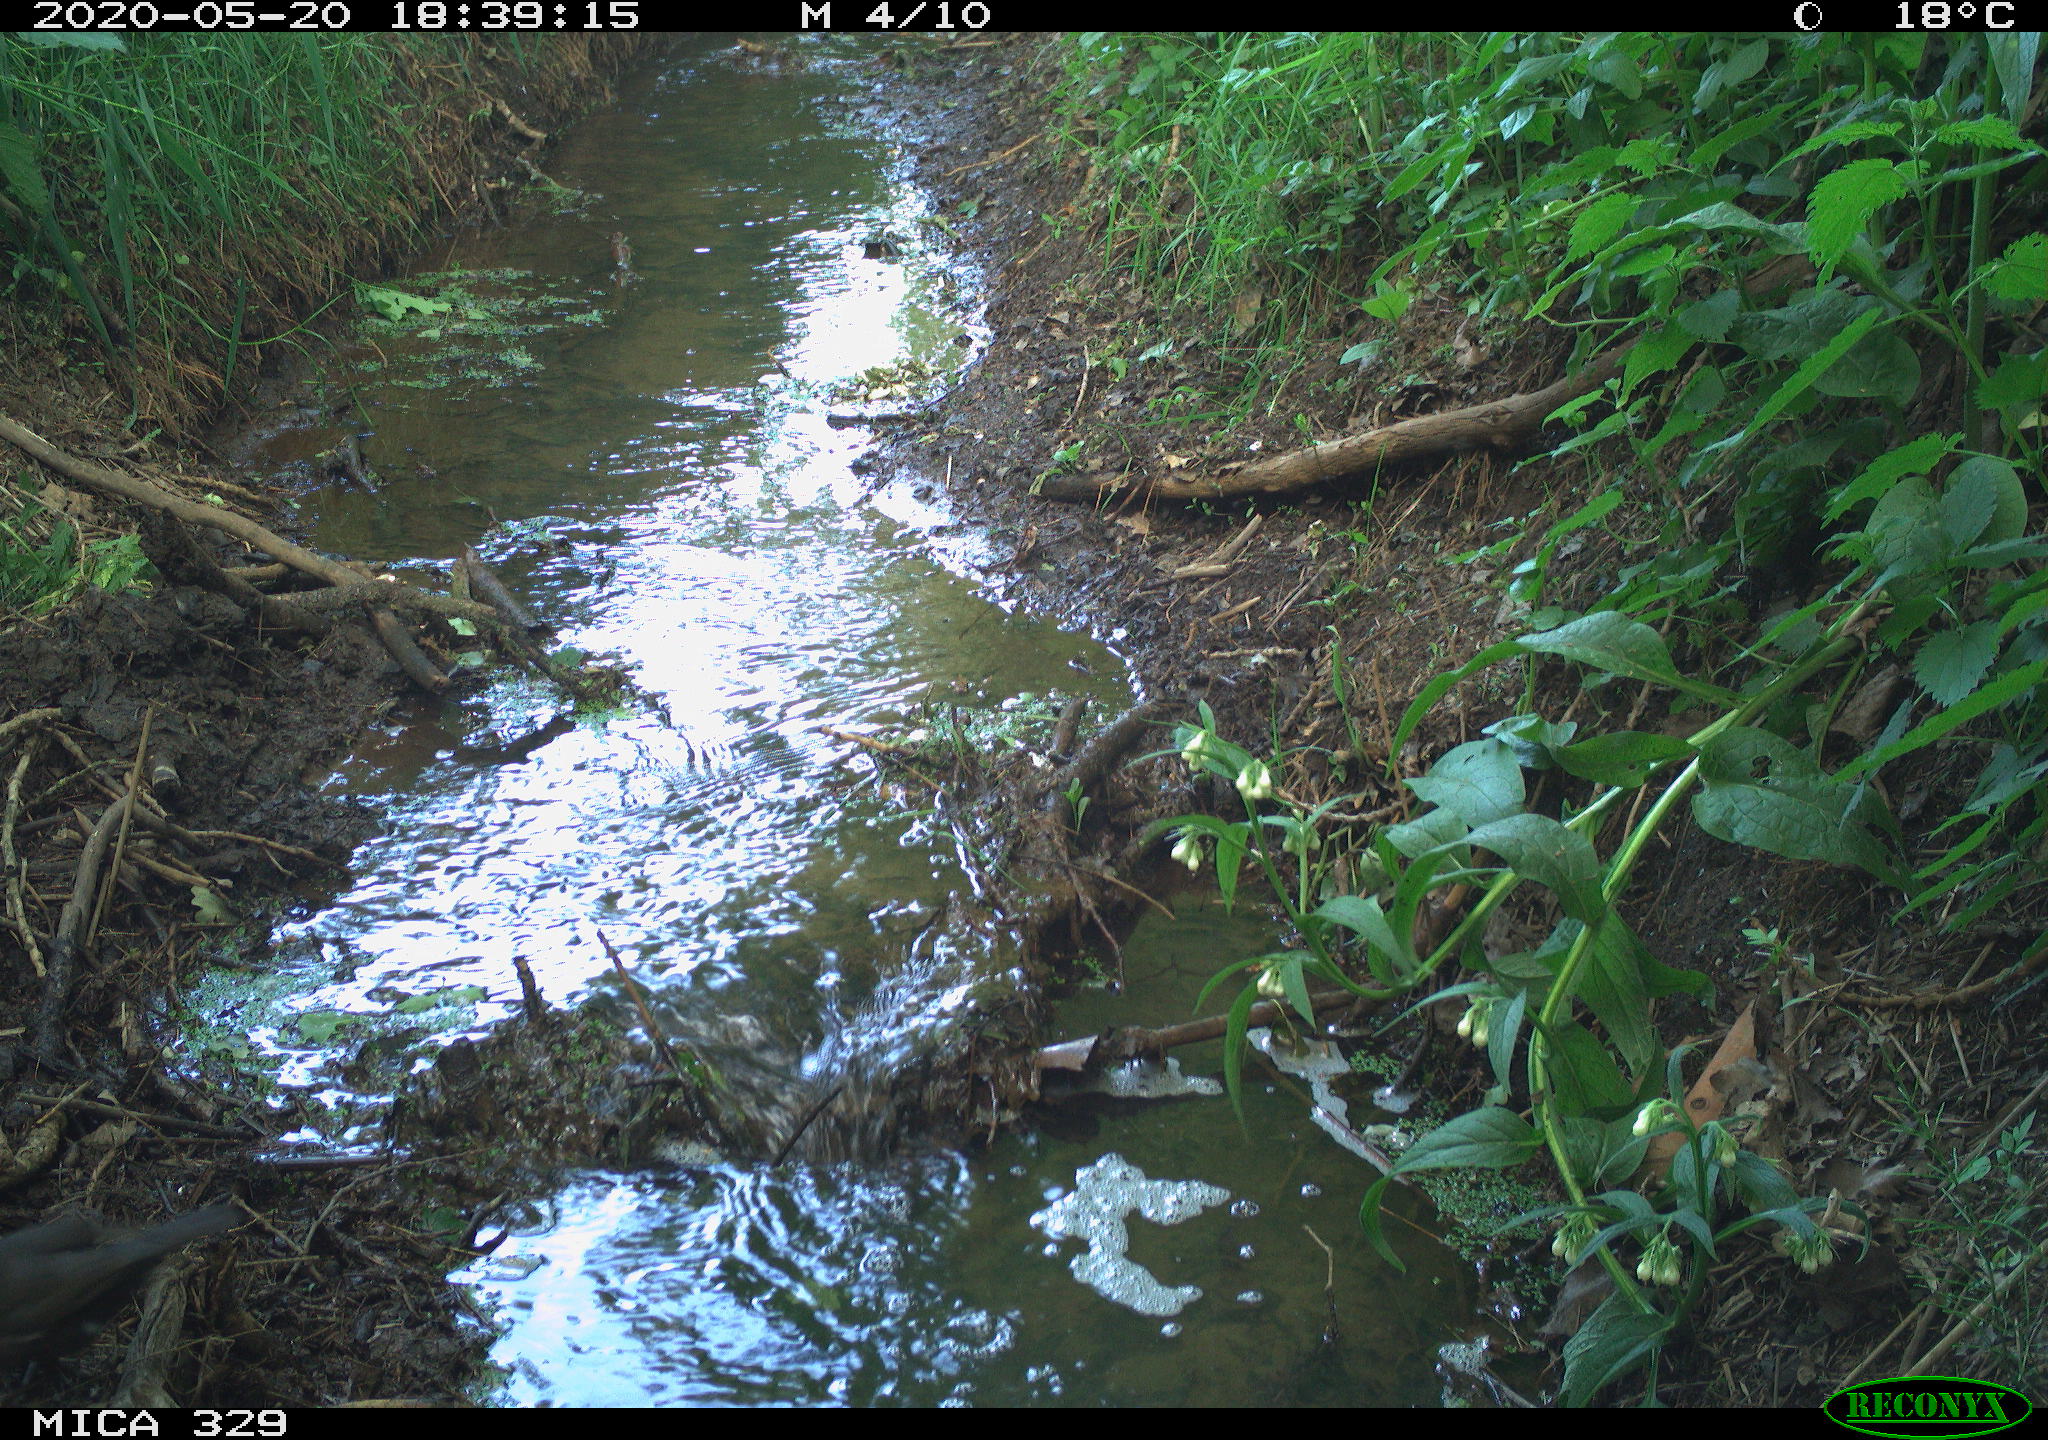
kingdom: Animalia
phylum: Chordata
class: Aves
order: Passeriformes
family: Turdidae
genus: Turdus
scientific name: Turdus merula
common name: Common blackbird
